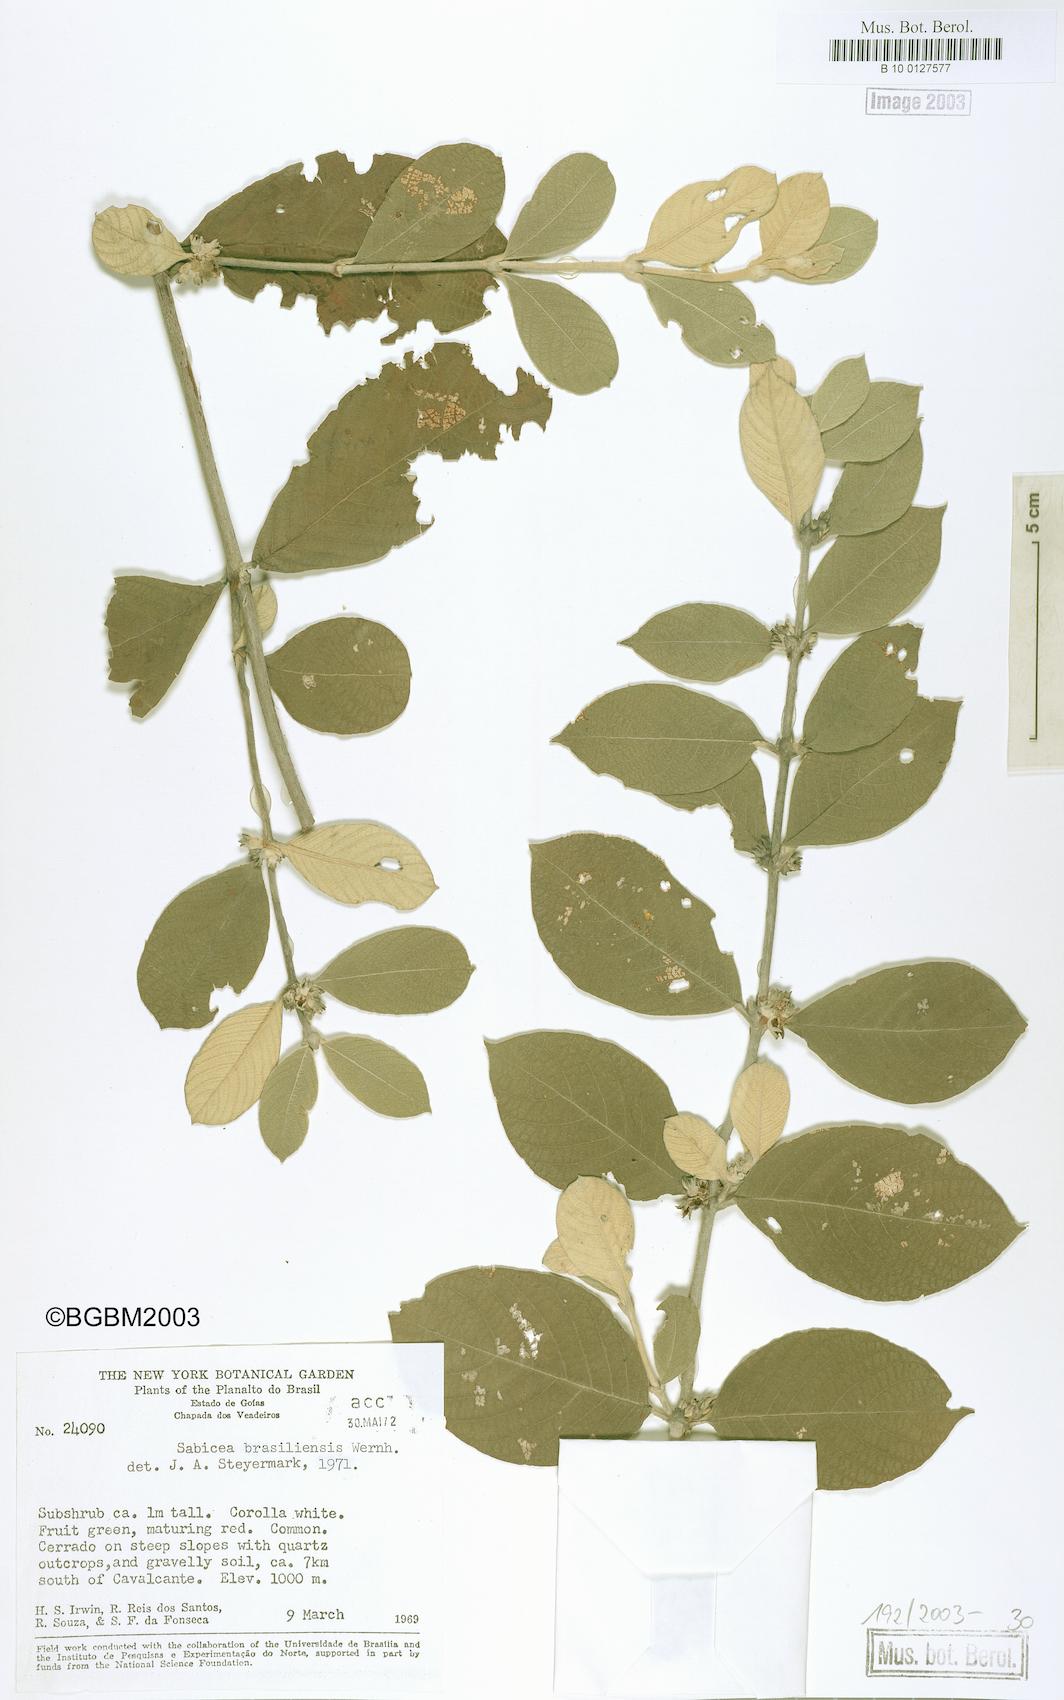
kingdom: Plantae
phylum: Tracheophyta
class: Magnoliopsida
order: Gentianales
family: Rubiaceae
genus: Sabicea
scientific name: Sabicea brasiliensis
